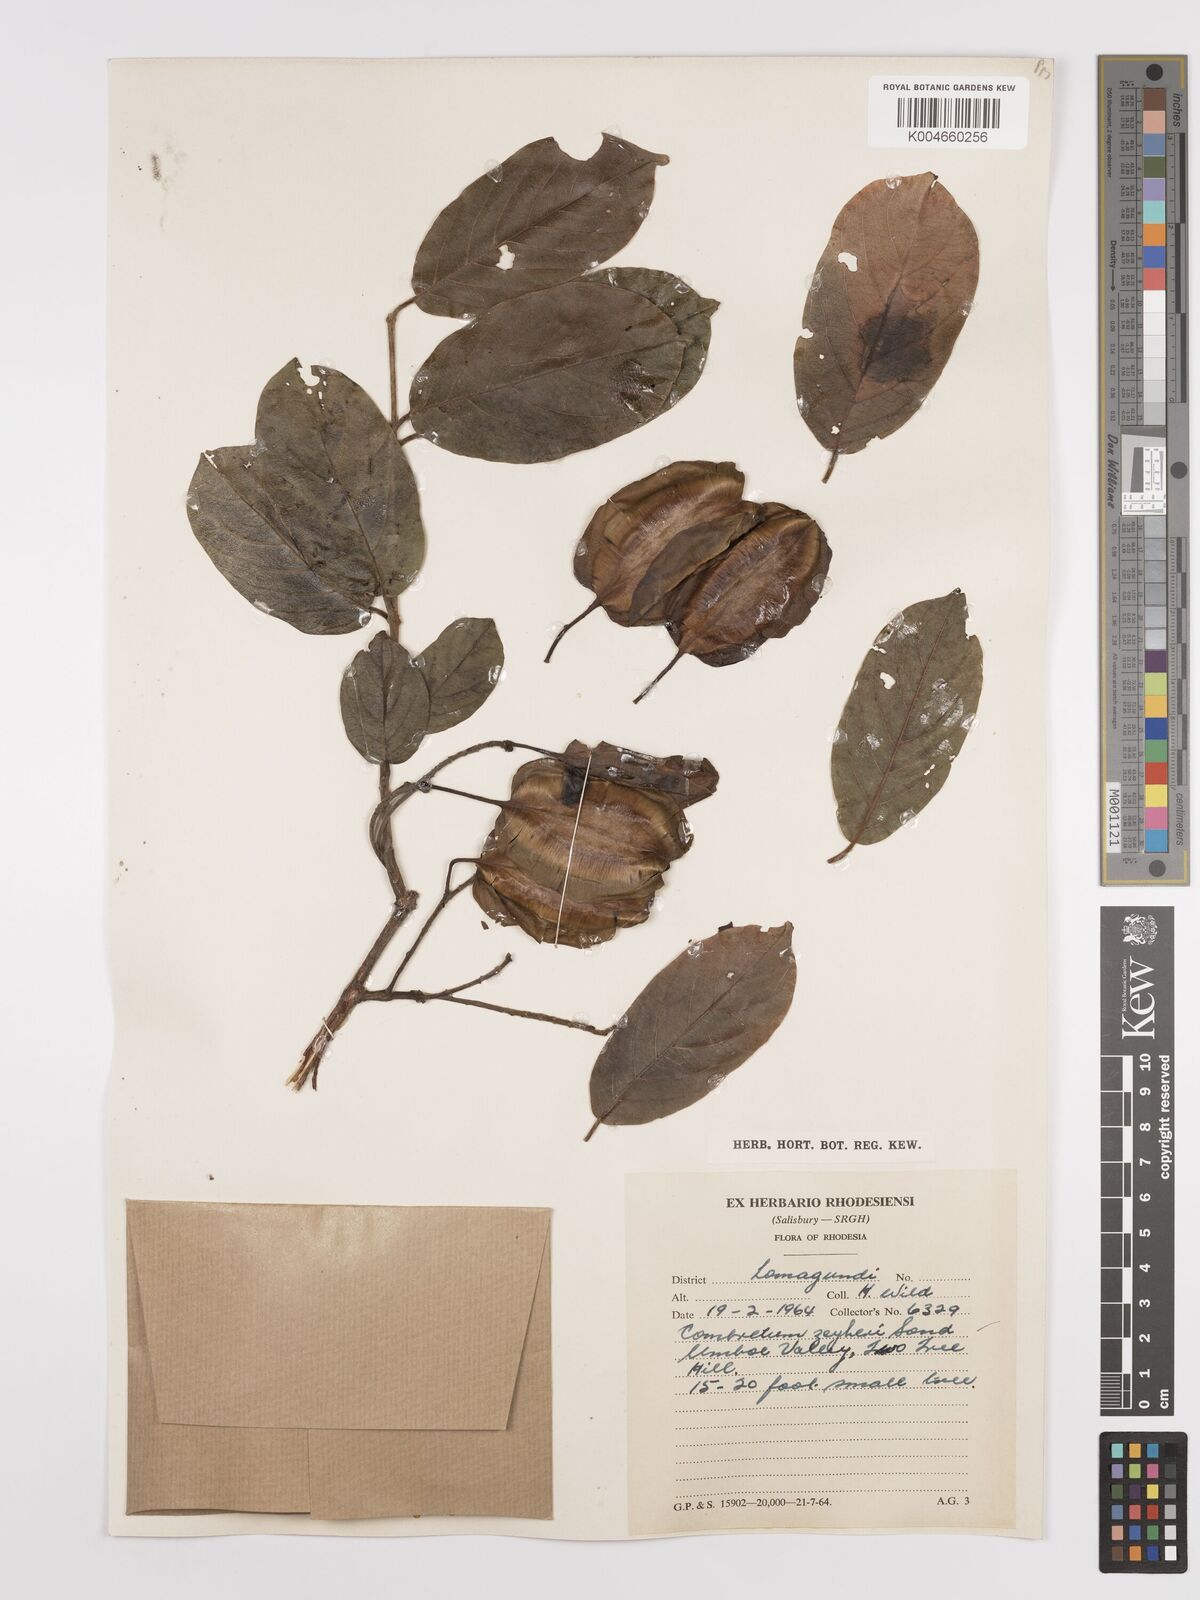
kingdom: Plantae
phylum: Tracheophyta
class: Magnoliopsida
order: Myrtales
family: Combretaceae
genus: Combretum
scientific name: Combretum zeyheri
